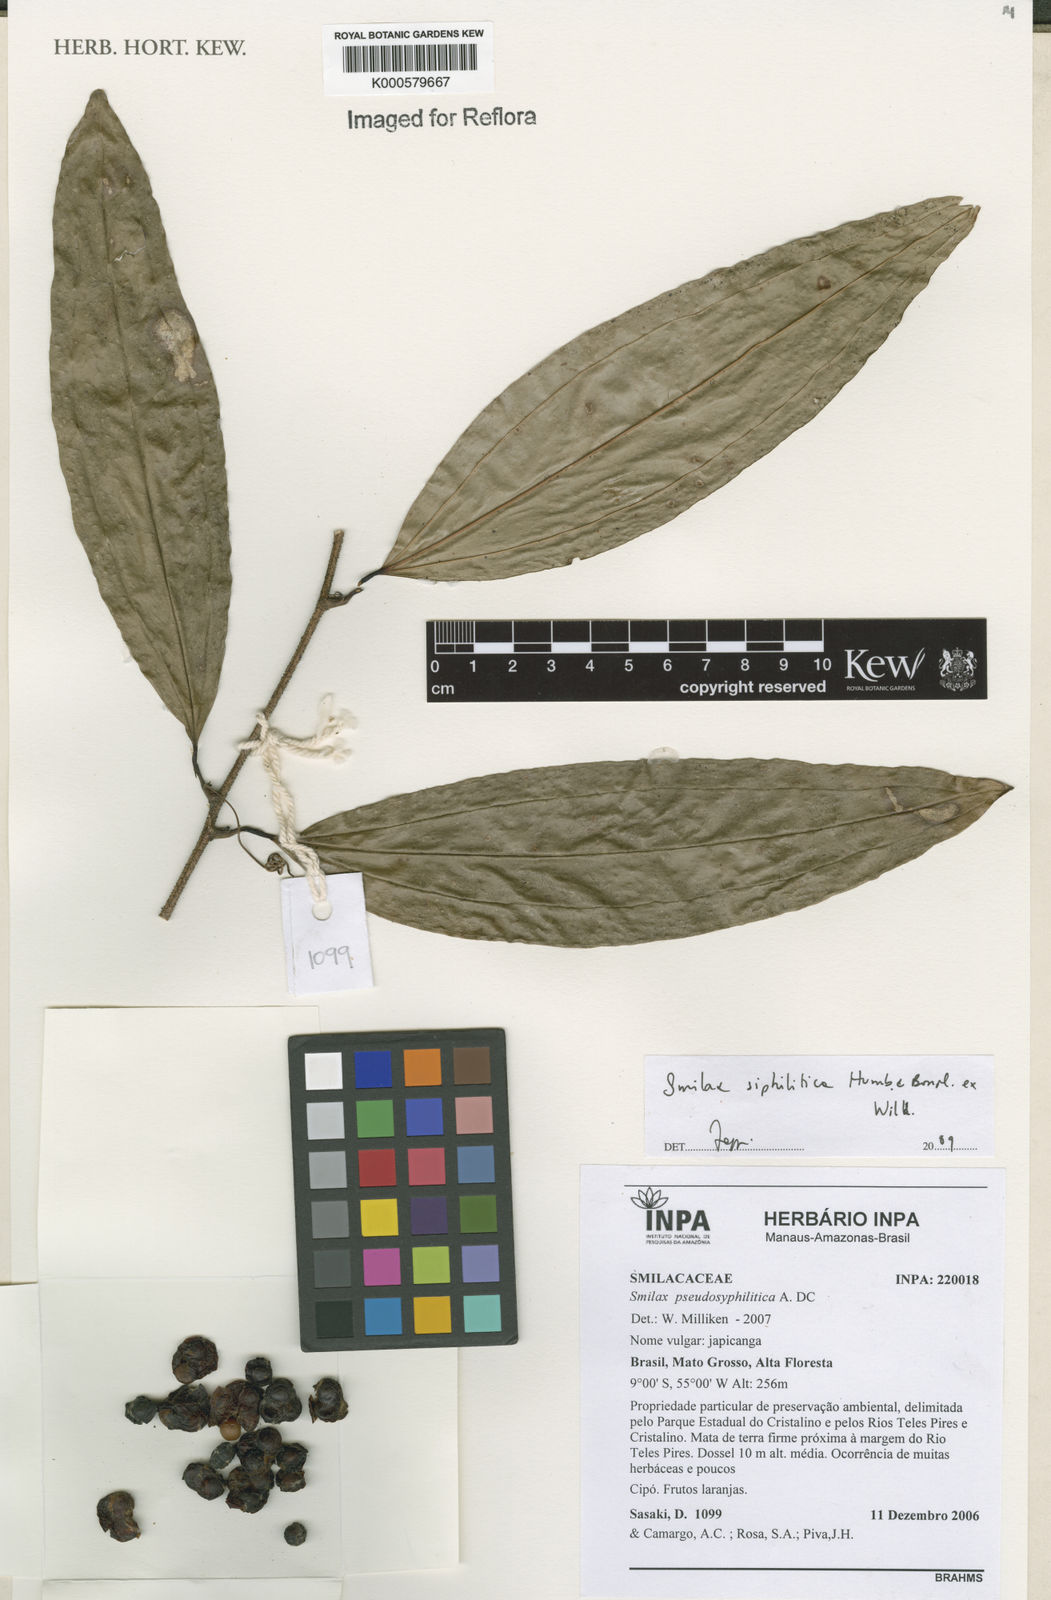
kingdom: Plantae
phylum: Tracheophyta
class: Liliopsida
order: Liliales
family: Smilacaceae
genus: Smilax
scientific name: Smilax siphilitica
